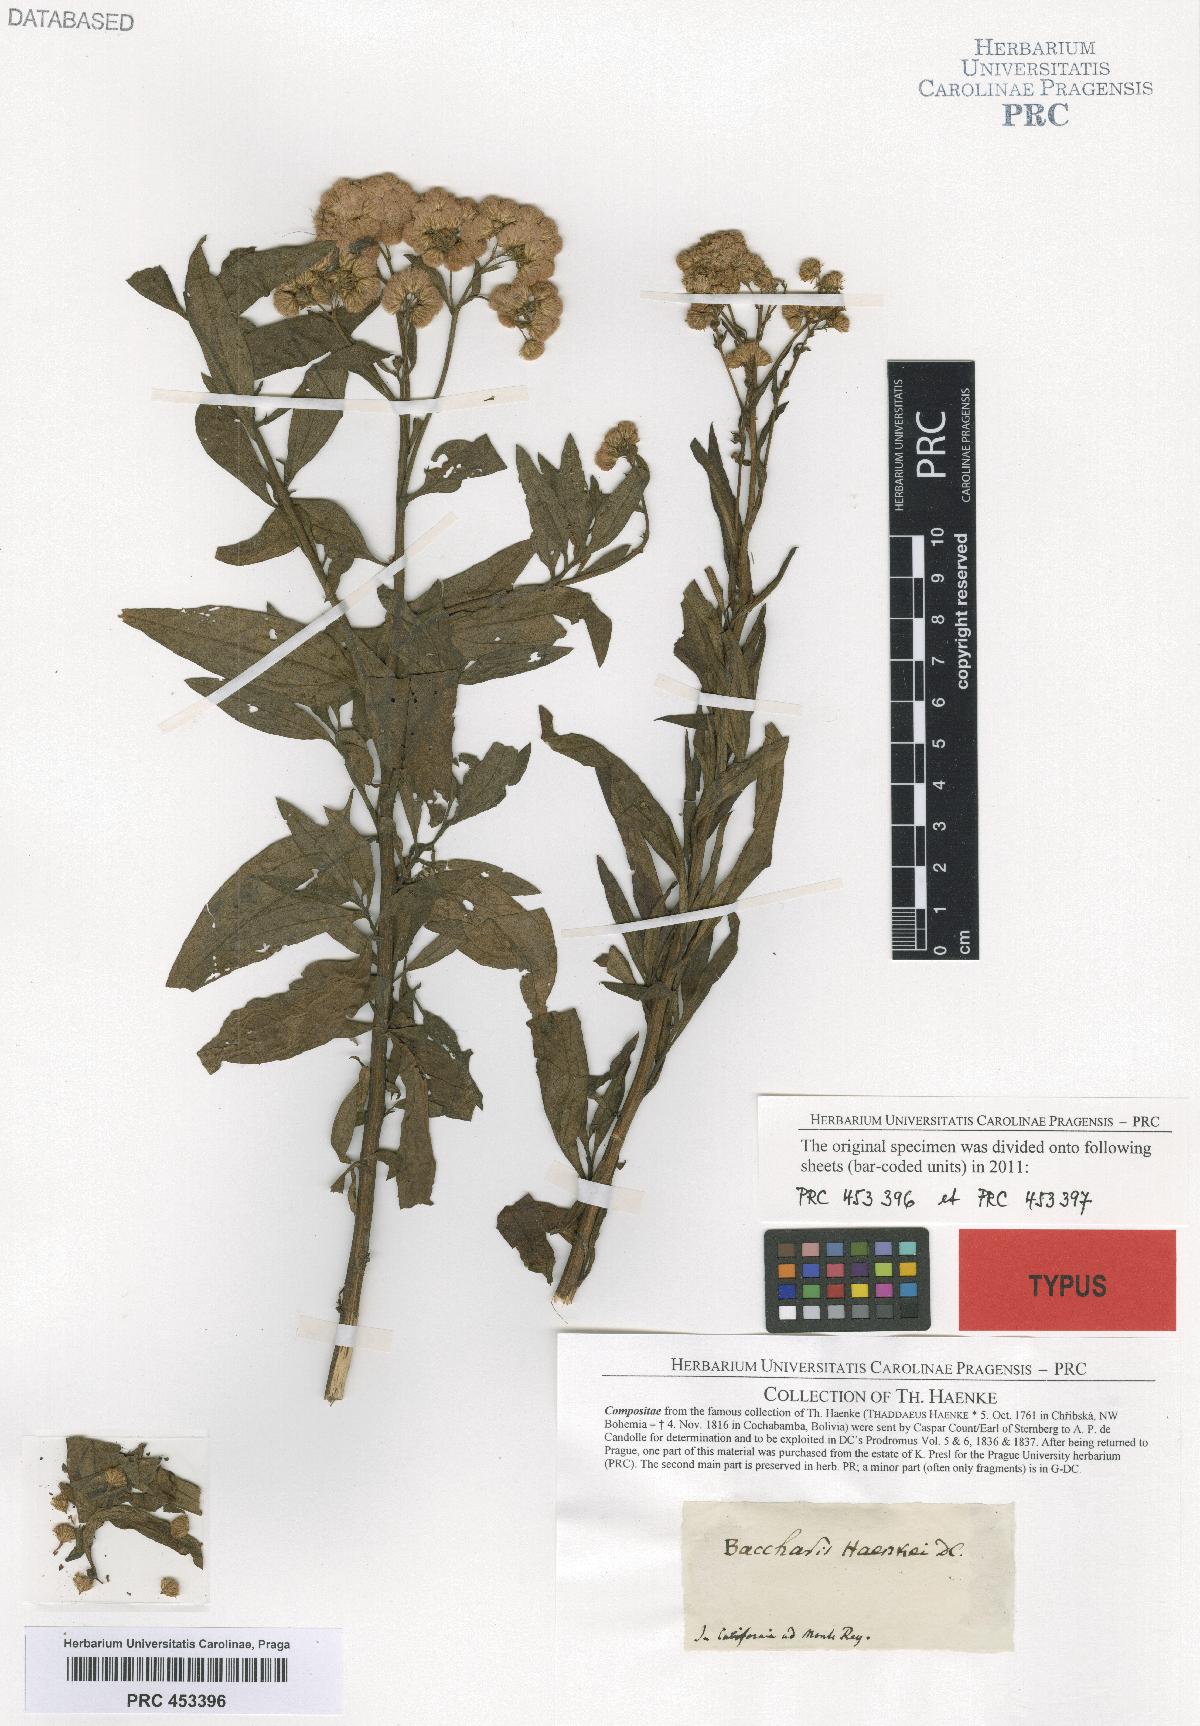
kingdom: Plantae
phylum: Tracheophyta
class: Magnoliopsida
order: Asterales
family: Asteraceae
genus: Baccharis
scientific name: Baccharis douglasii
